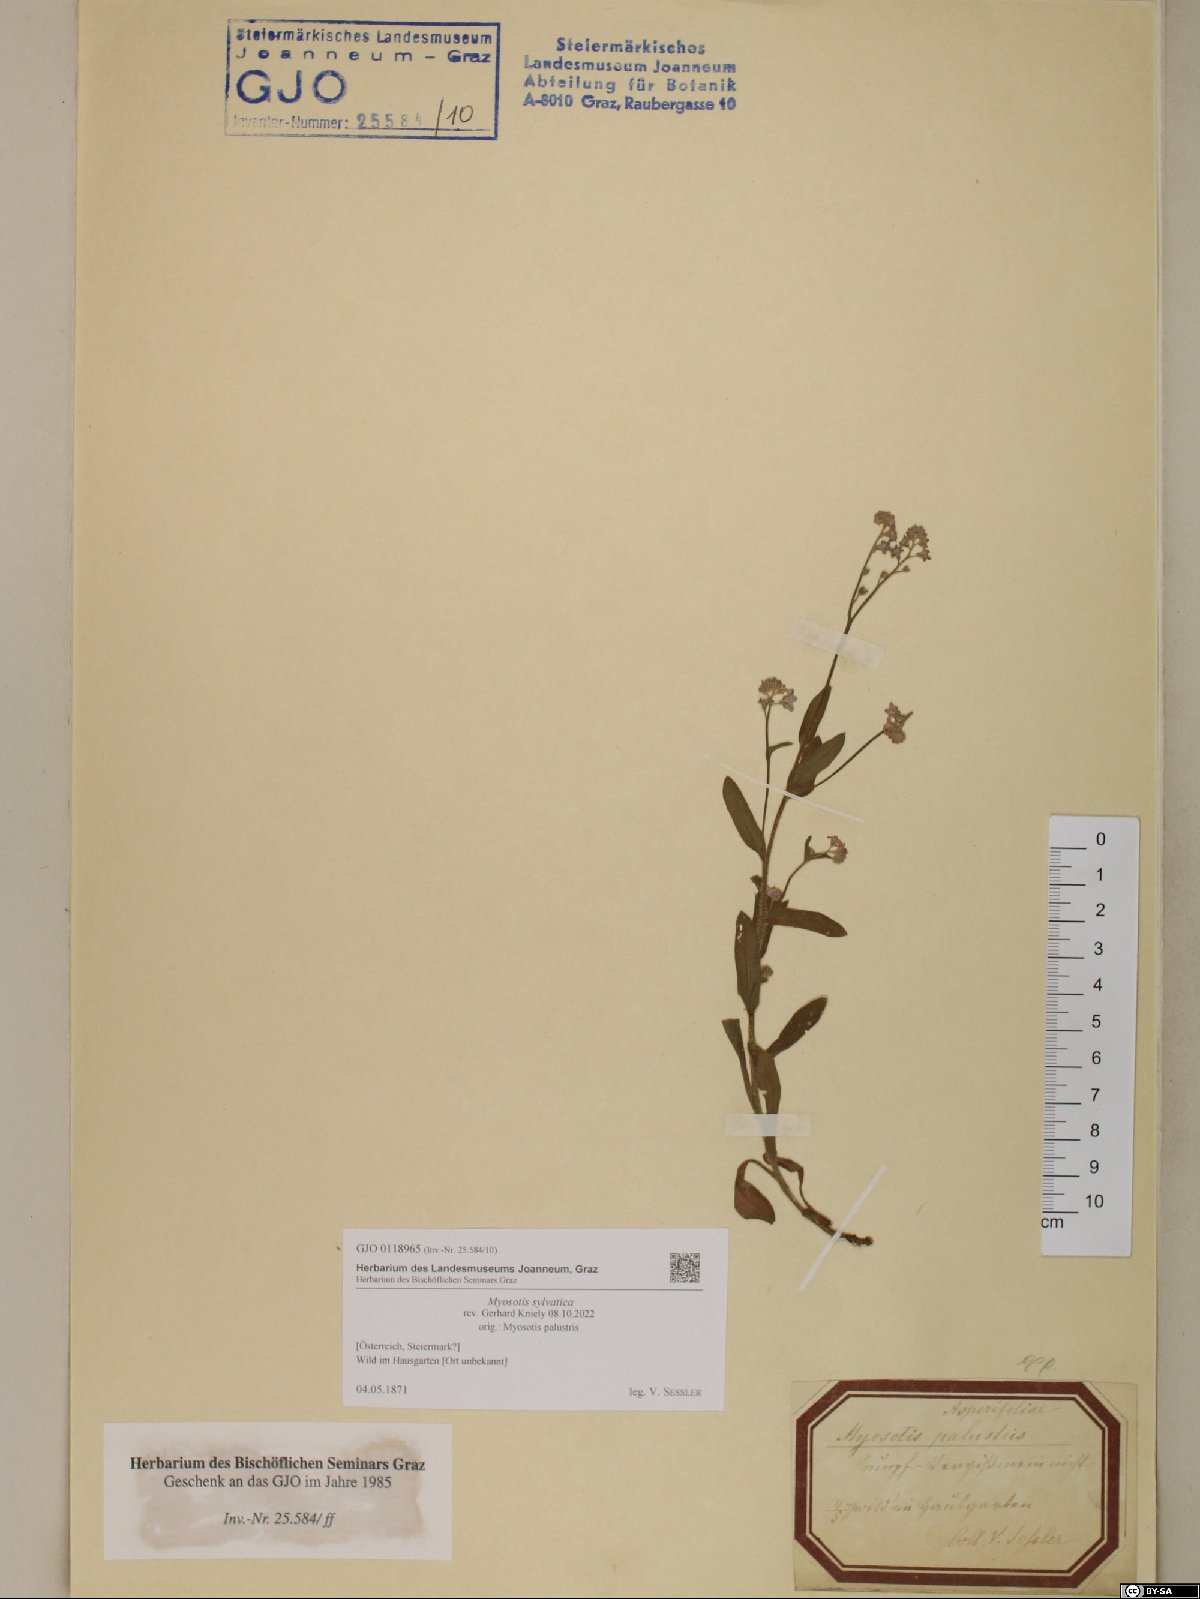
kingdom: Plantae
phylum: Tracheophyta
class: Magnoliopsida
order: Boraginales
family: Boraginaceae
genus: Myosotis
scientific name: Myosotis sylvatica
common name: Wood forget-me-not
